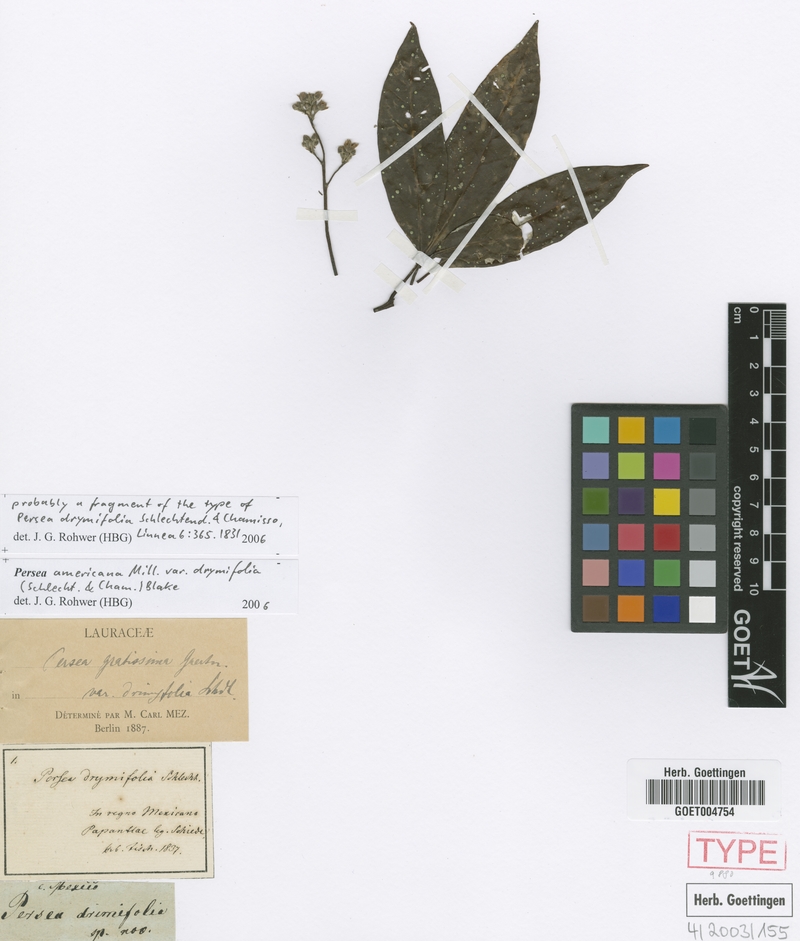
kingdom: Plantae
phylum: Tracheophyta
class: Magnoliopsida
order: Laurales
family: Lauraceae
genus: Persea
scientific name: Persea americana
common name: Avocado
